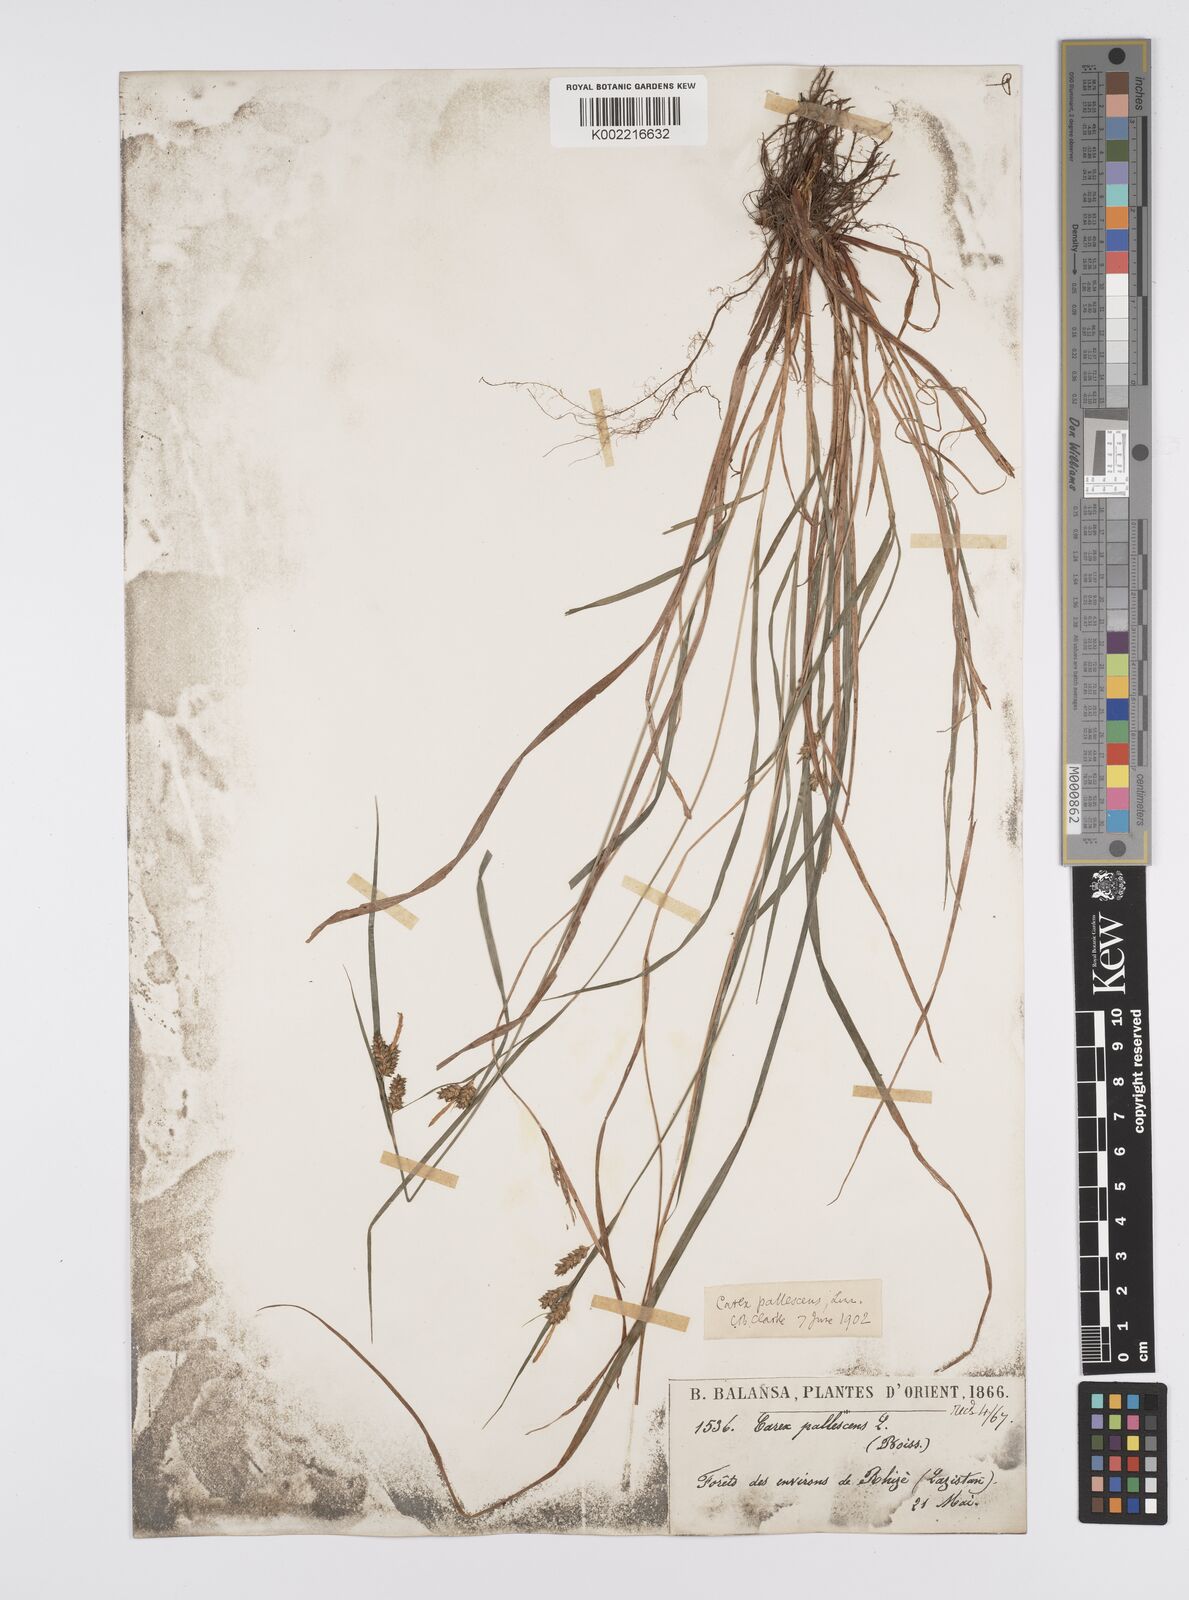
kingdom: Plantae
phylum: Tracheophyta
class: Liliopsida
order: Poales
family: Cyperaceae
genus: Carex
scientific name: Carex pallescens
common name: Pale sedge
